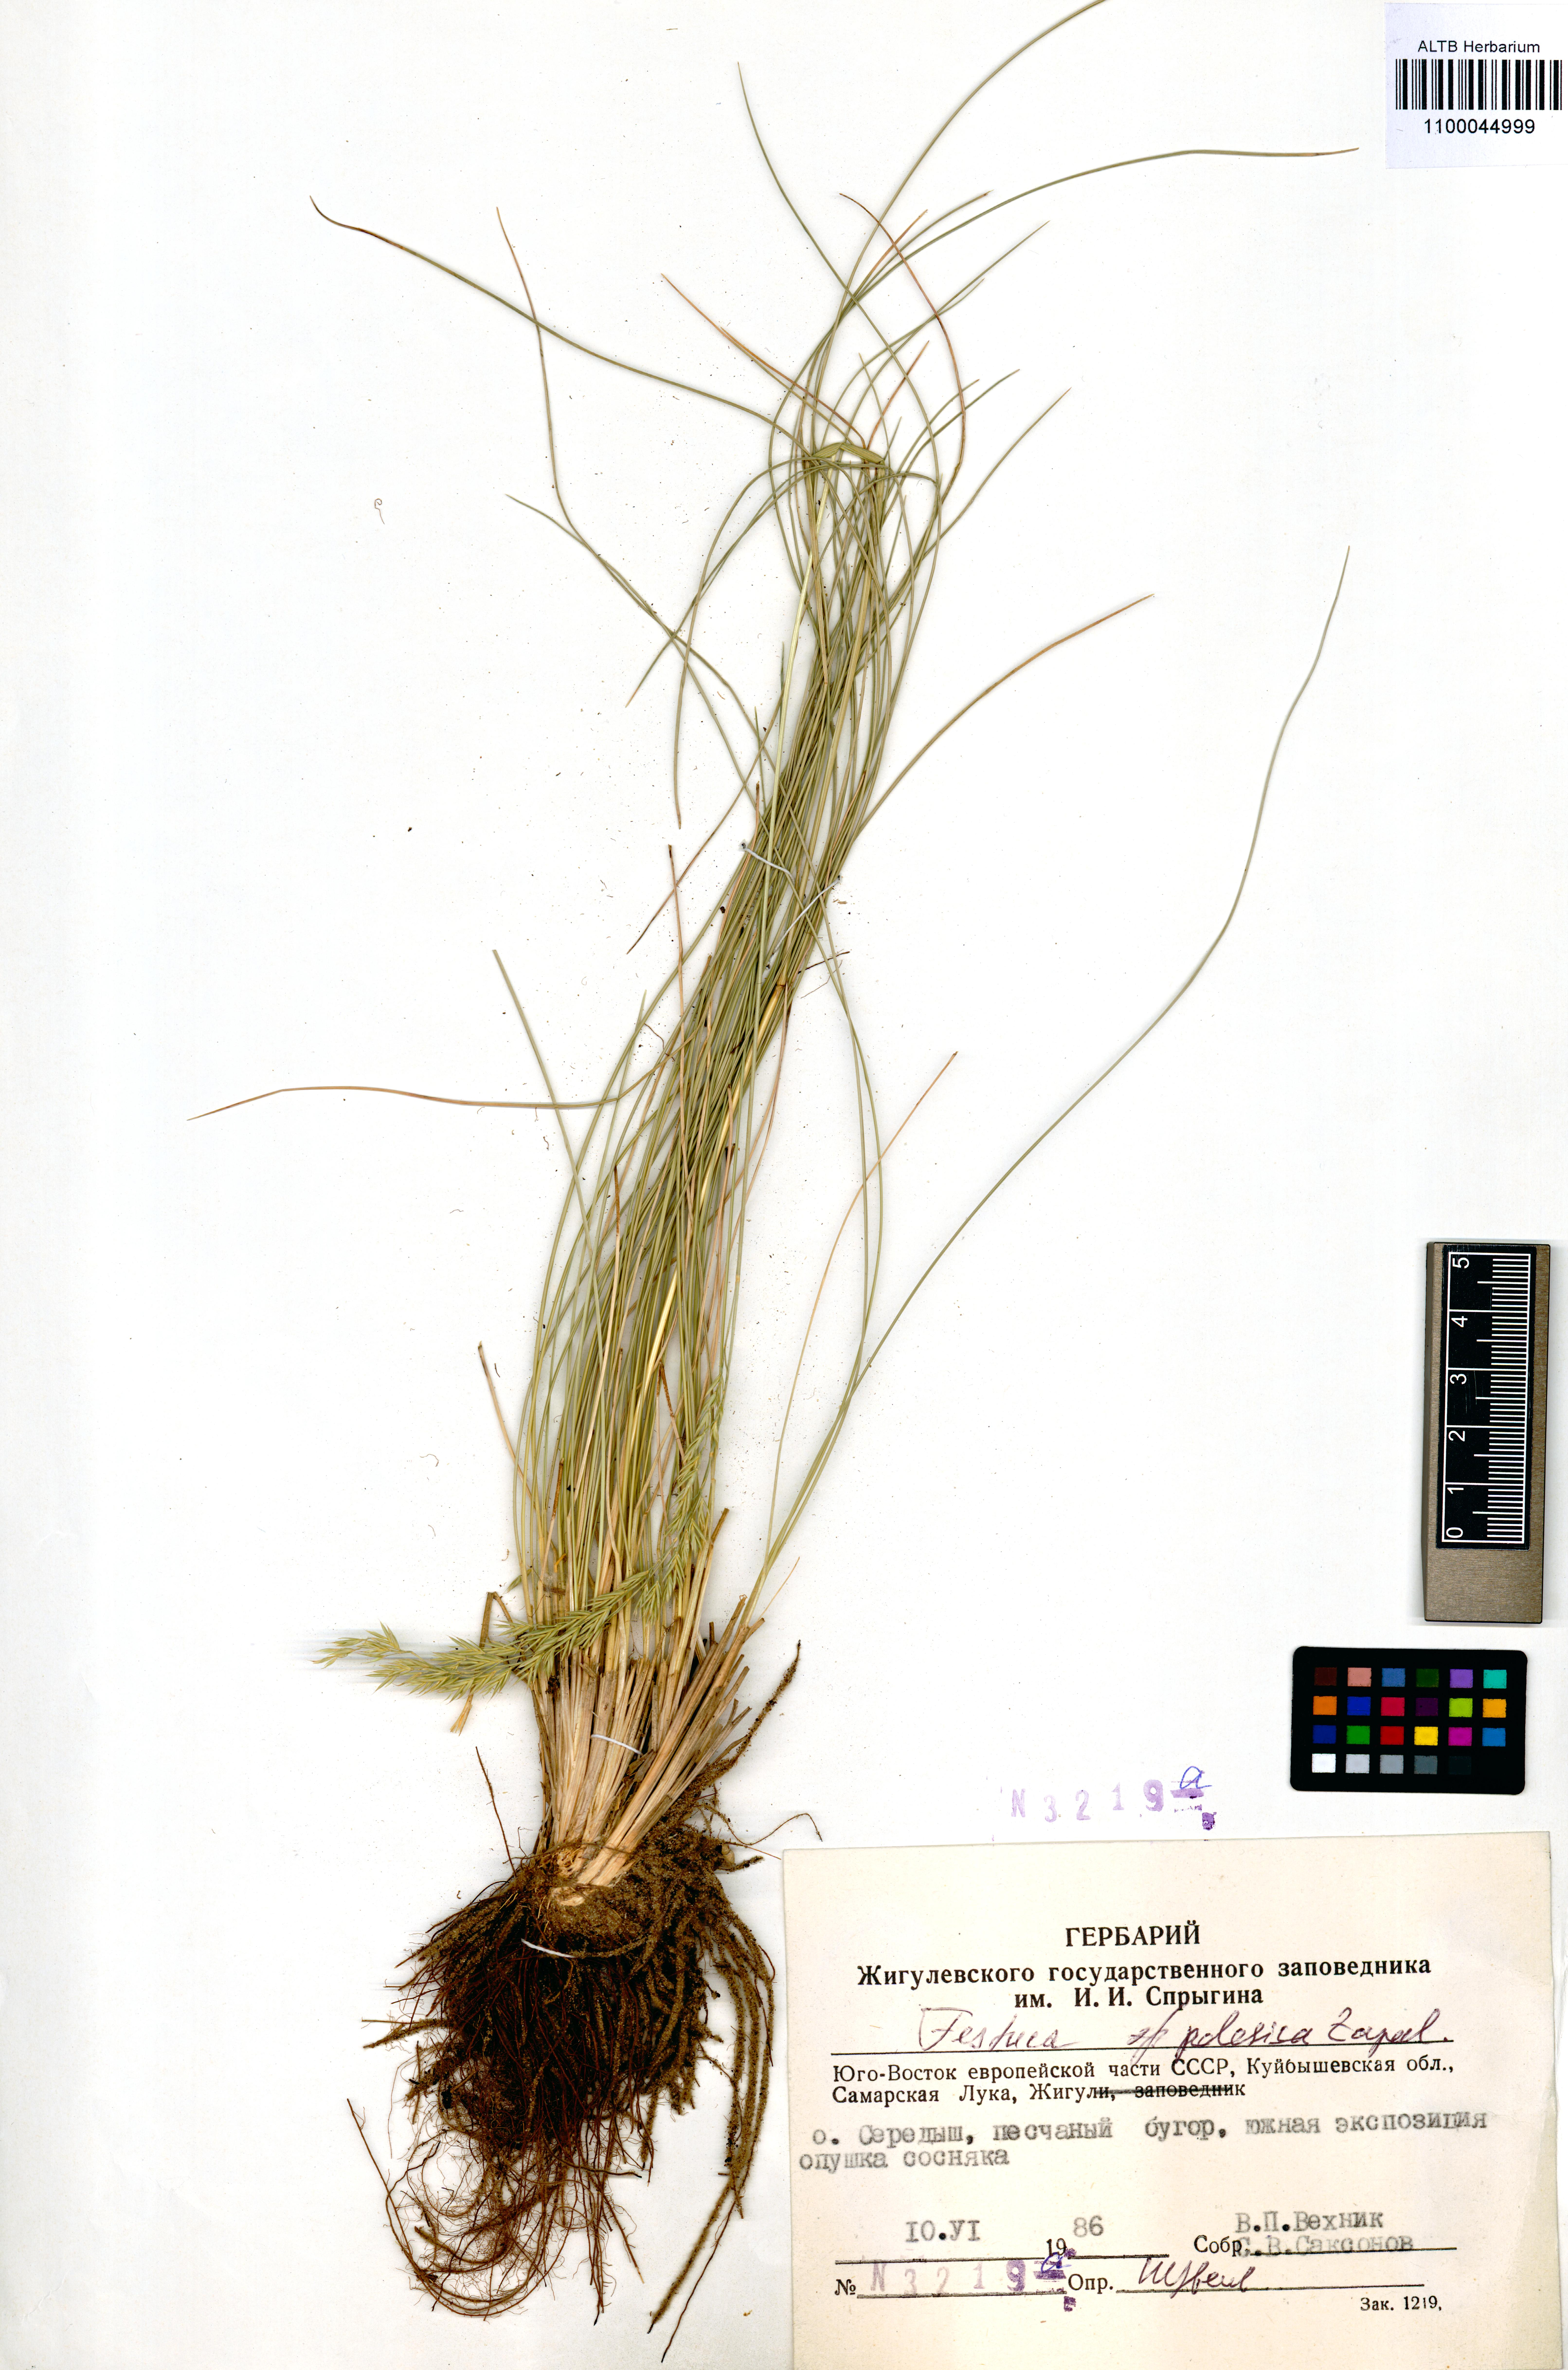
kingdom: Plantae
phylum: Tracheophyta
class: Liliopsida
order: Poales
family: Poaceae
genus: Festuca
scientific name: Festuca beckeri
